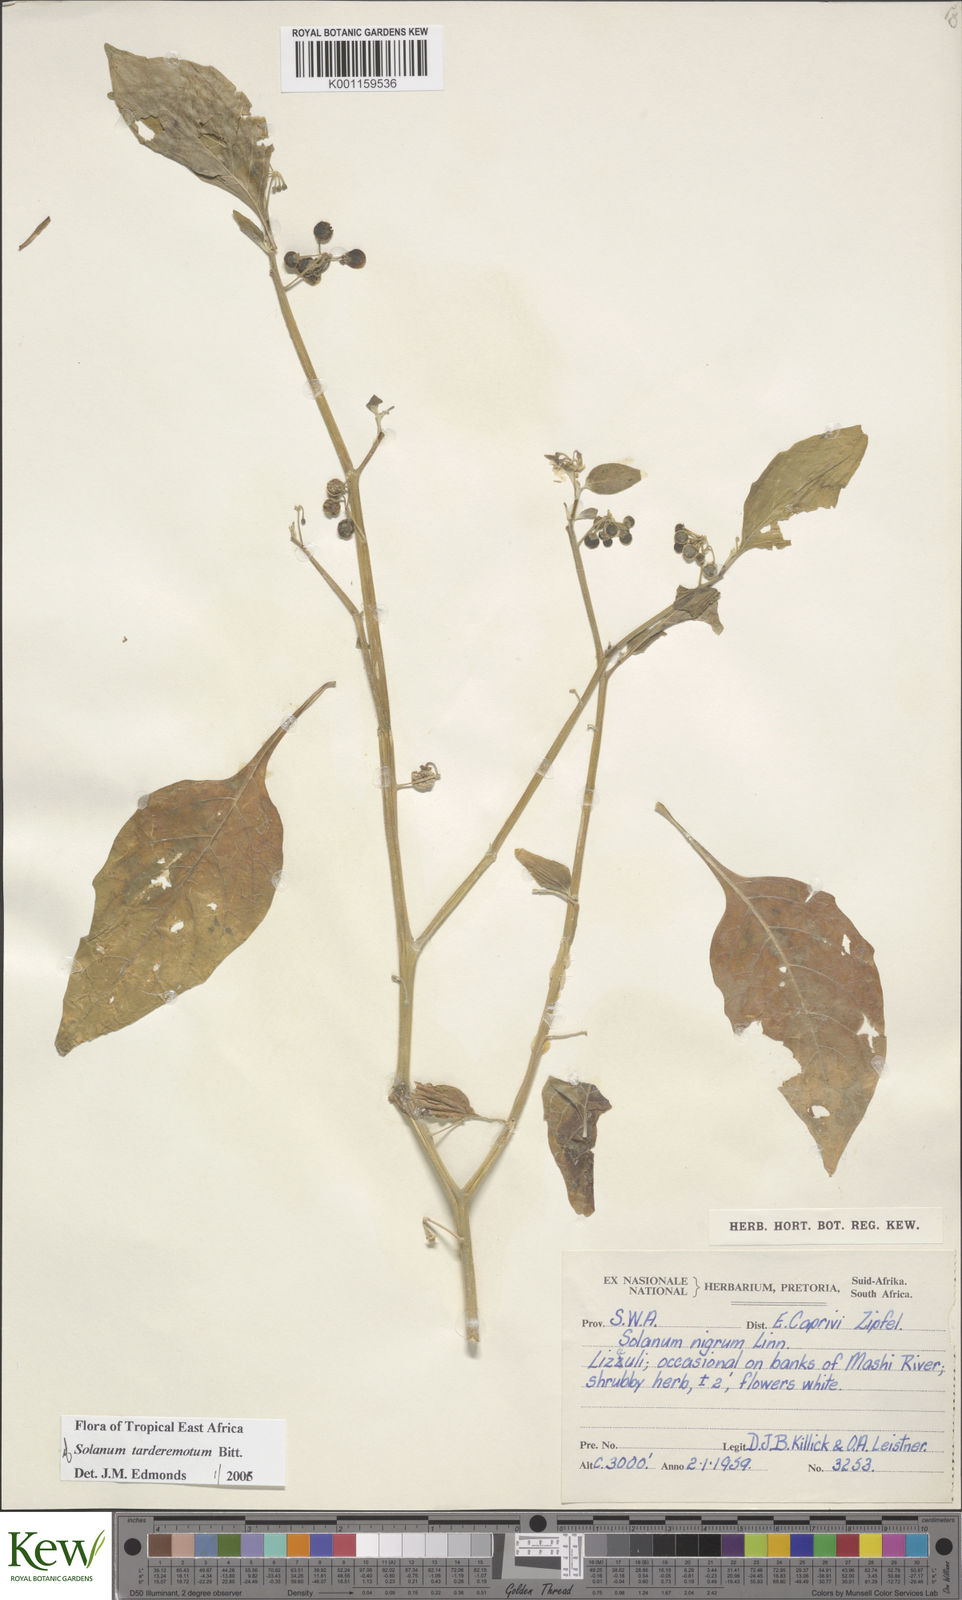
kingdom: Plantae
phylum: Tracheophyta
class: Magnoliopsida
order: Solanales
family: Solanaceae
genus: Solanum
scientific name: Solanum tarderemotum
